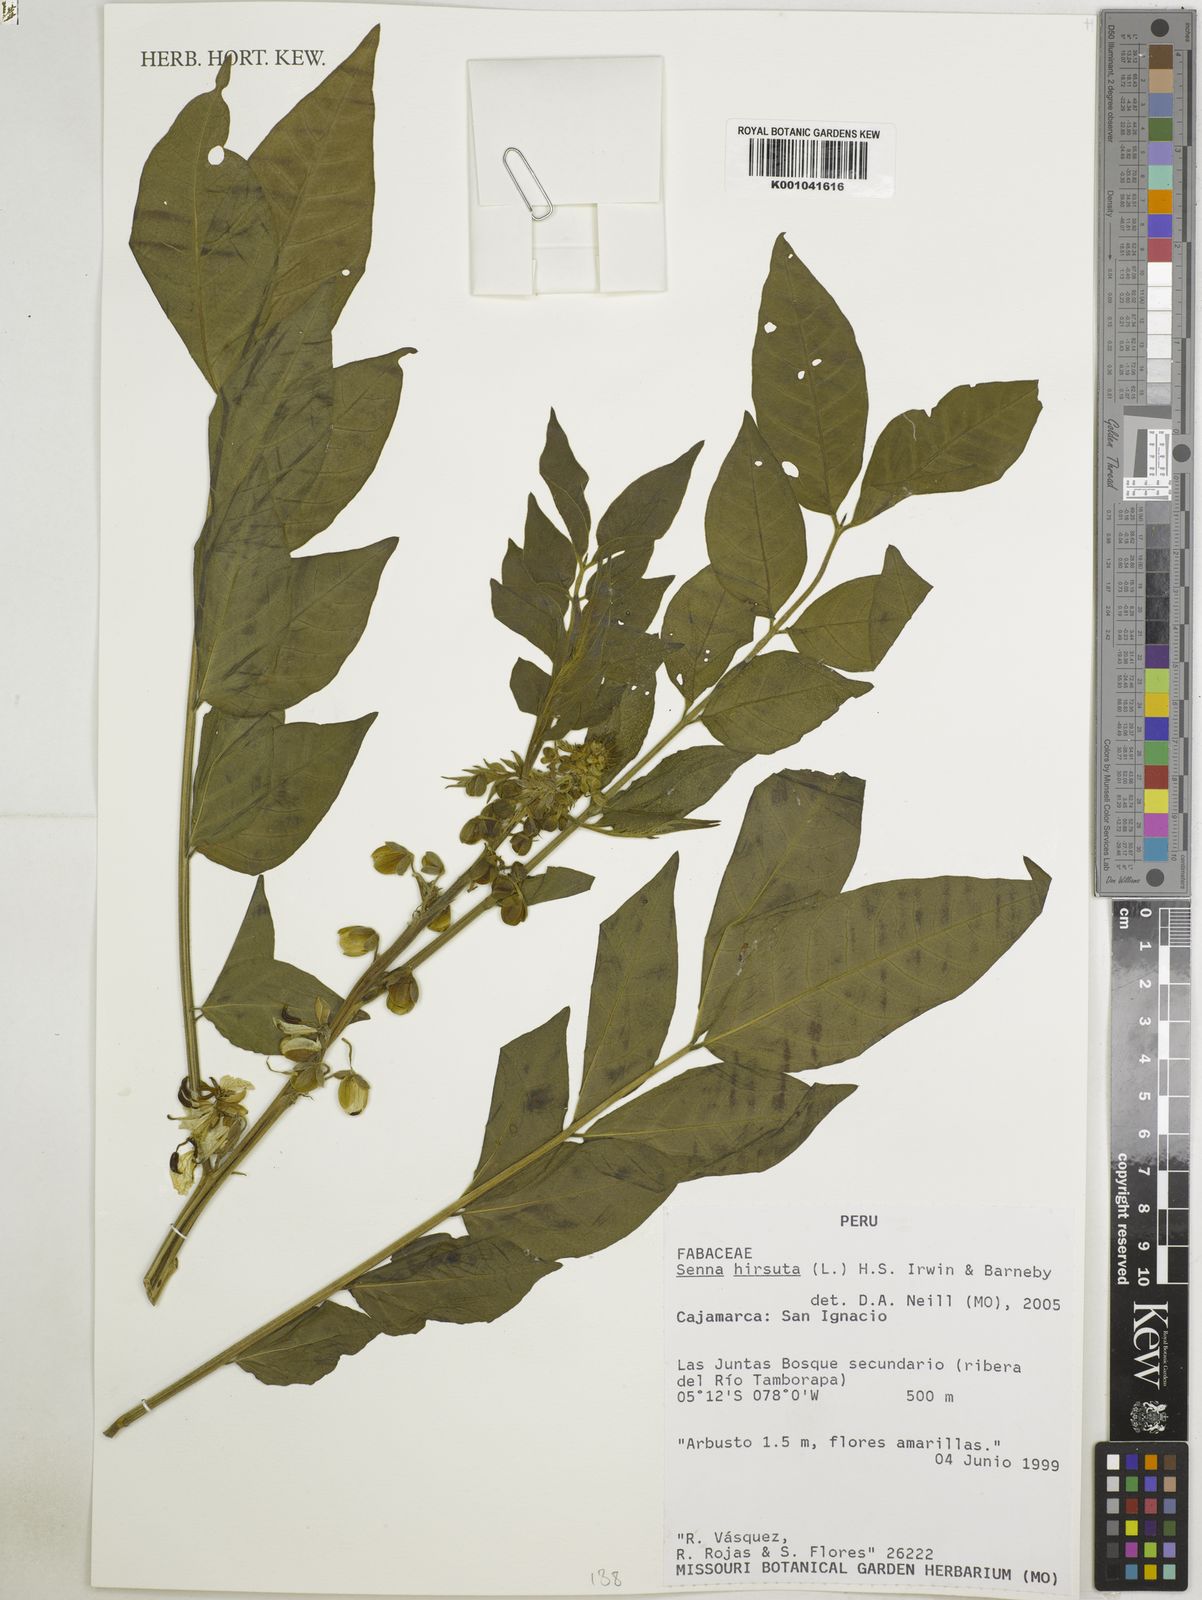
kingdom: Plantae
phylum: Tracheophyta
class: Magnoliopsida
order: Fabales
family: Fabaceae
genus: Senna
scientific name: Senna hirsuta
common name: Woolly senna
